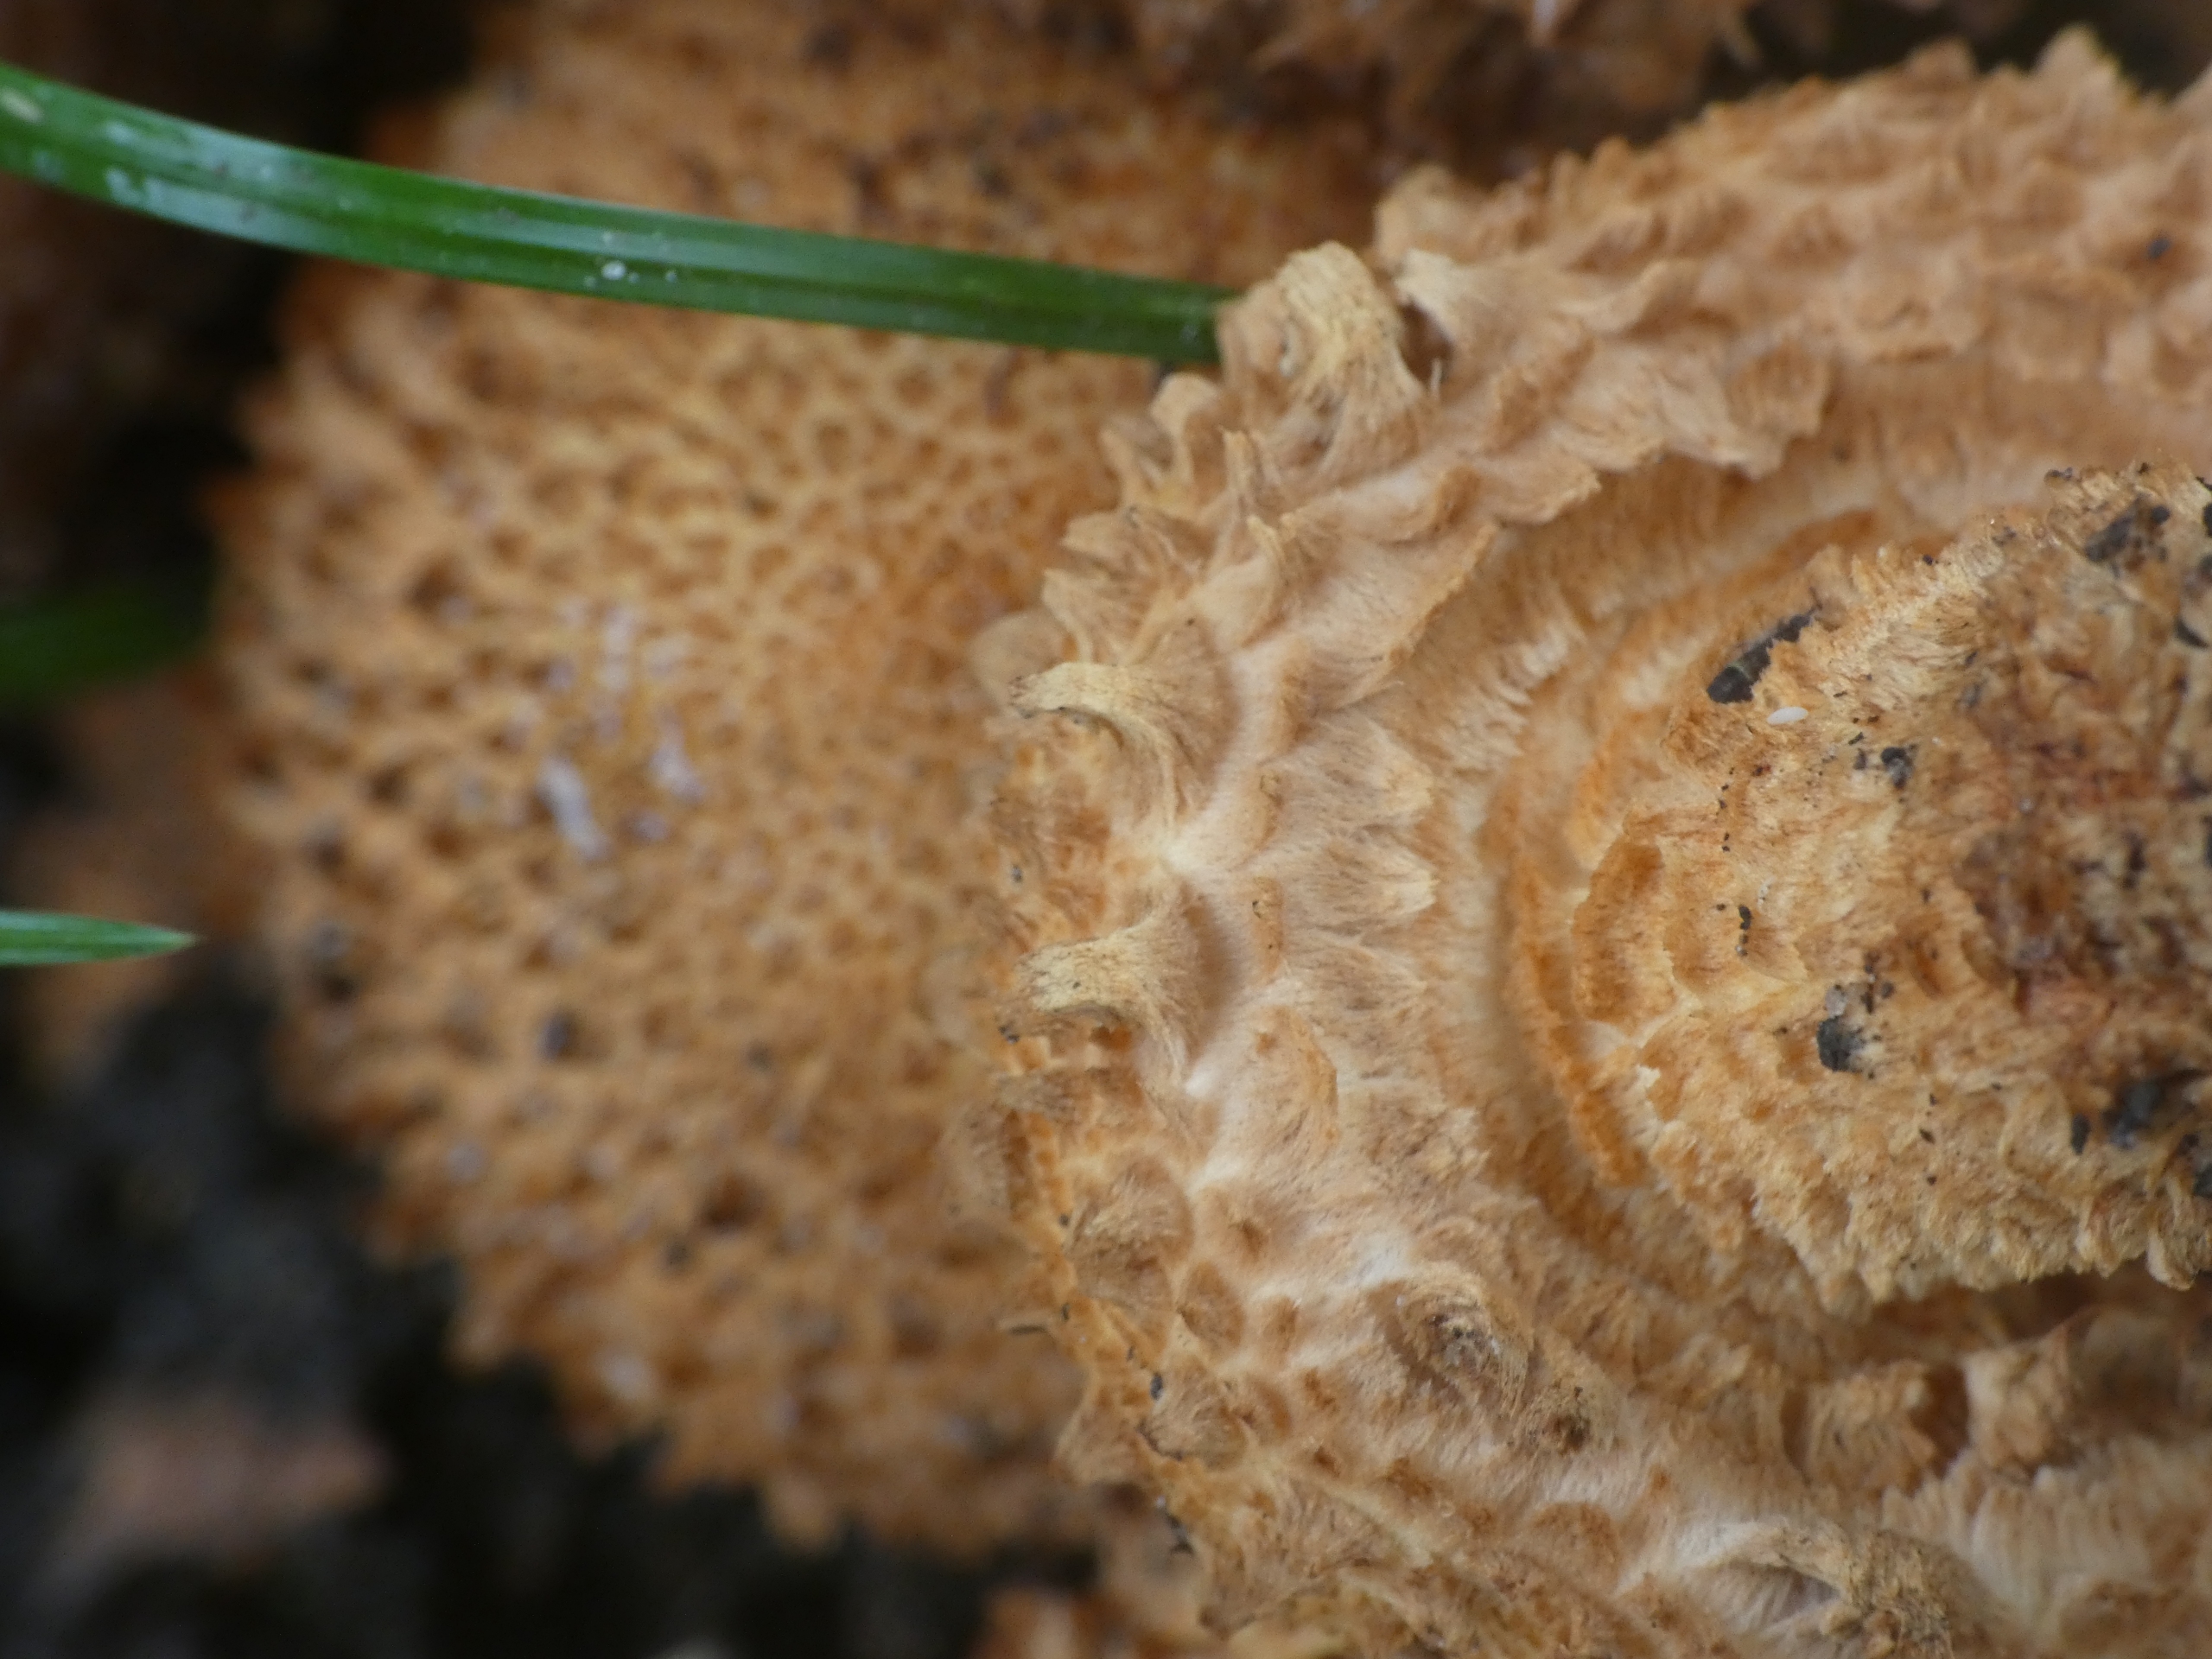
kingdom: Fungi
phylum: Basidiomycota
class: Agaricomycetes
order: Agaricales
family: Strophariaceae
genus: Pholiota
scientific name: Pholiota squarrosa
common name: Krumskællet skælhat
